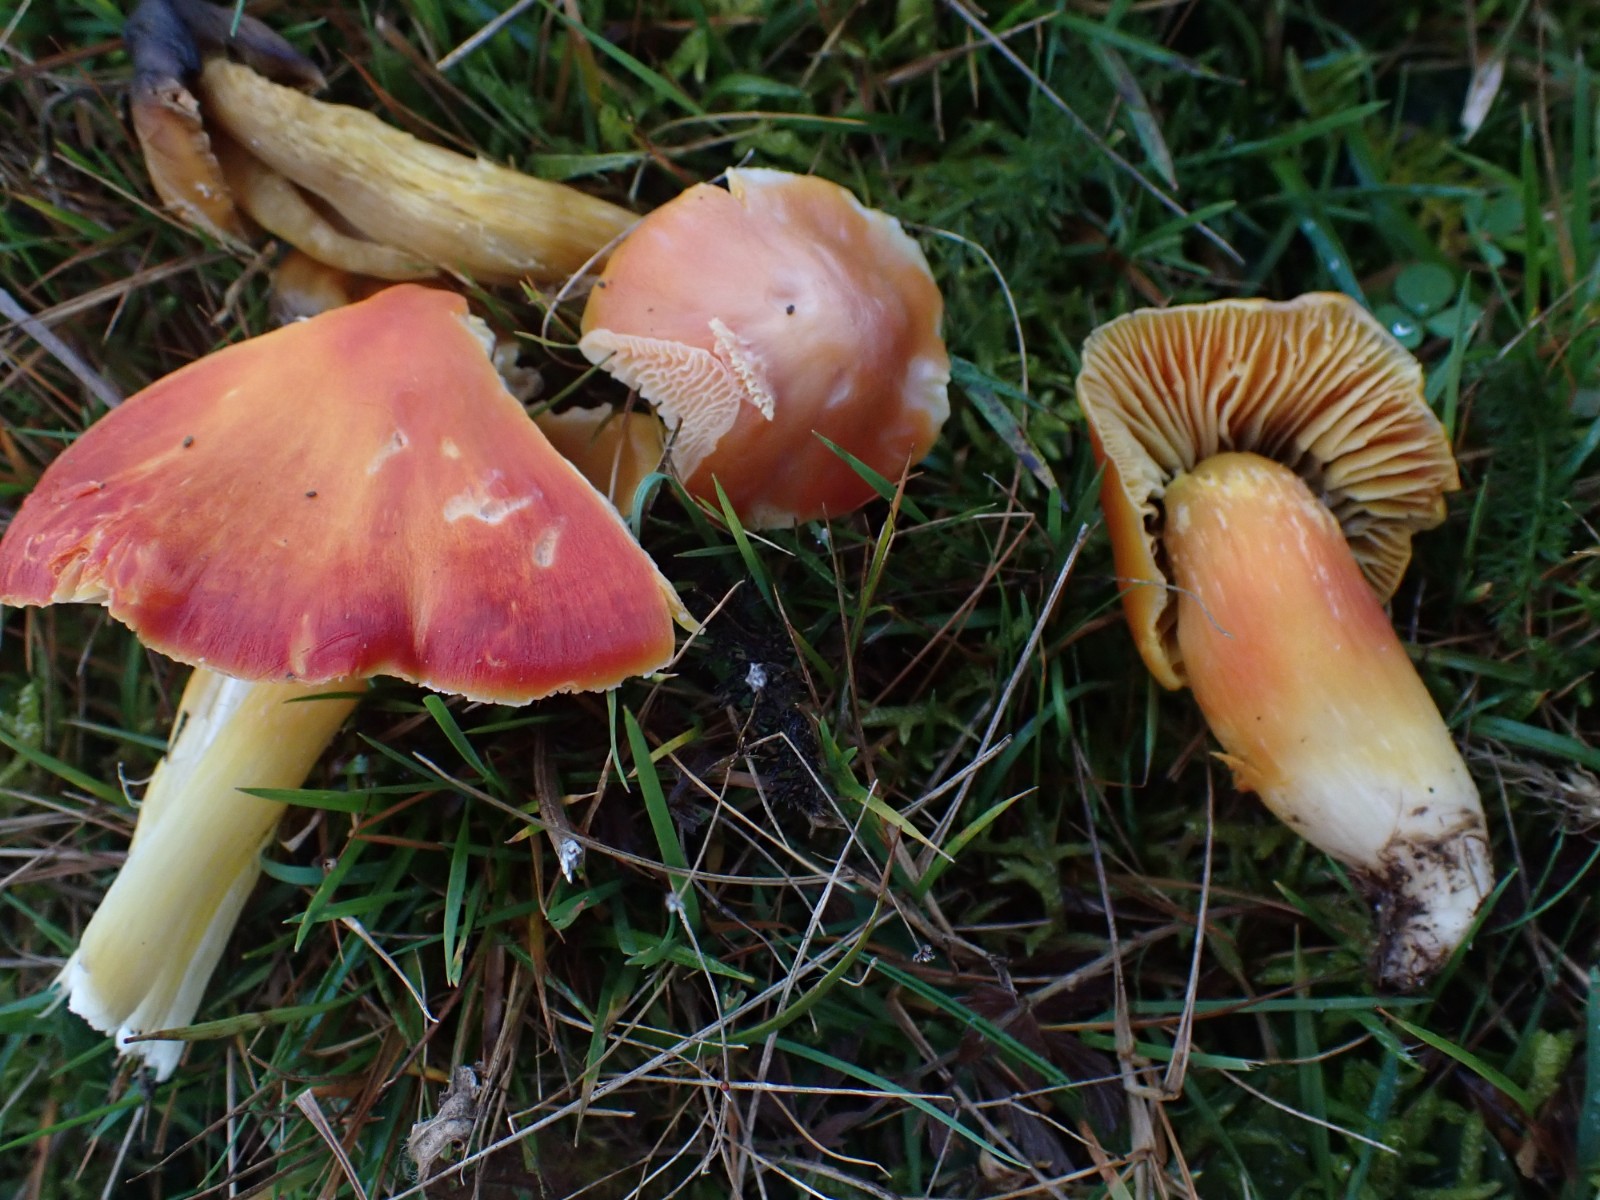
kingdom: Fungi
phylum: Basidiomycota
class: Agaricomycetes
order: Agaricales
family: Hygrophoraceae
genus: Hygrocybe
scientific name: Hygrocybe punicea
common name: skarlagen-vokshat
